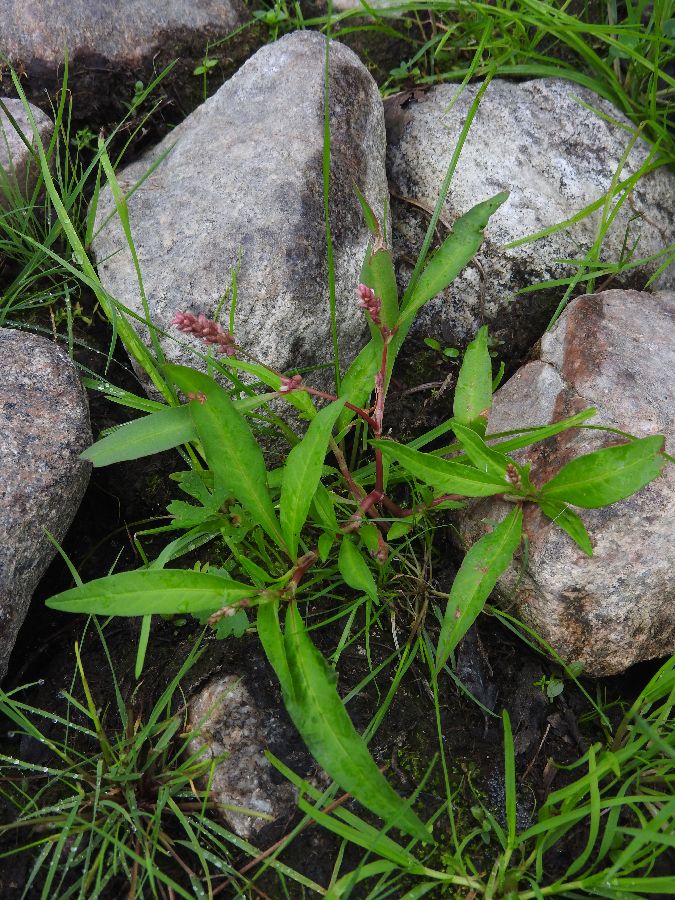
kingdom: Plantae
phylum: Tracheophyta
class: Magnoliopsida
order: Caryophyllales
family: Polygonaceae
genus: Persicaria
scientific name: Persicaria lapathifolia
